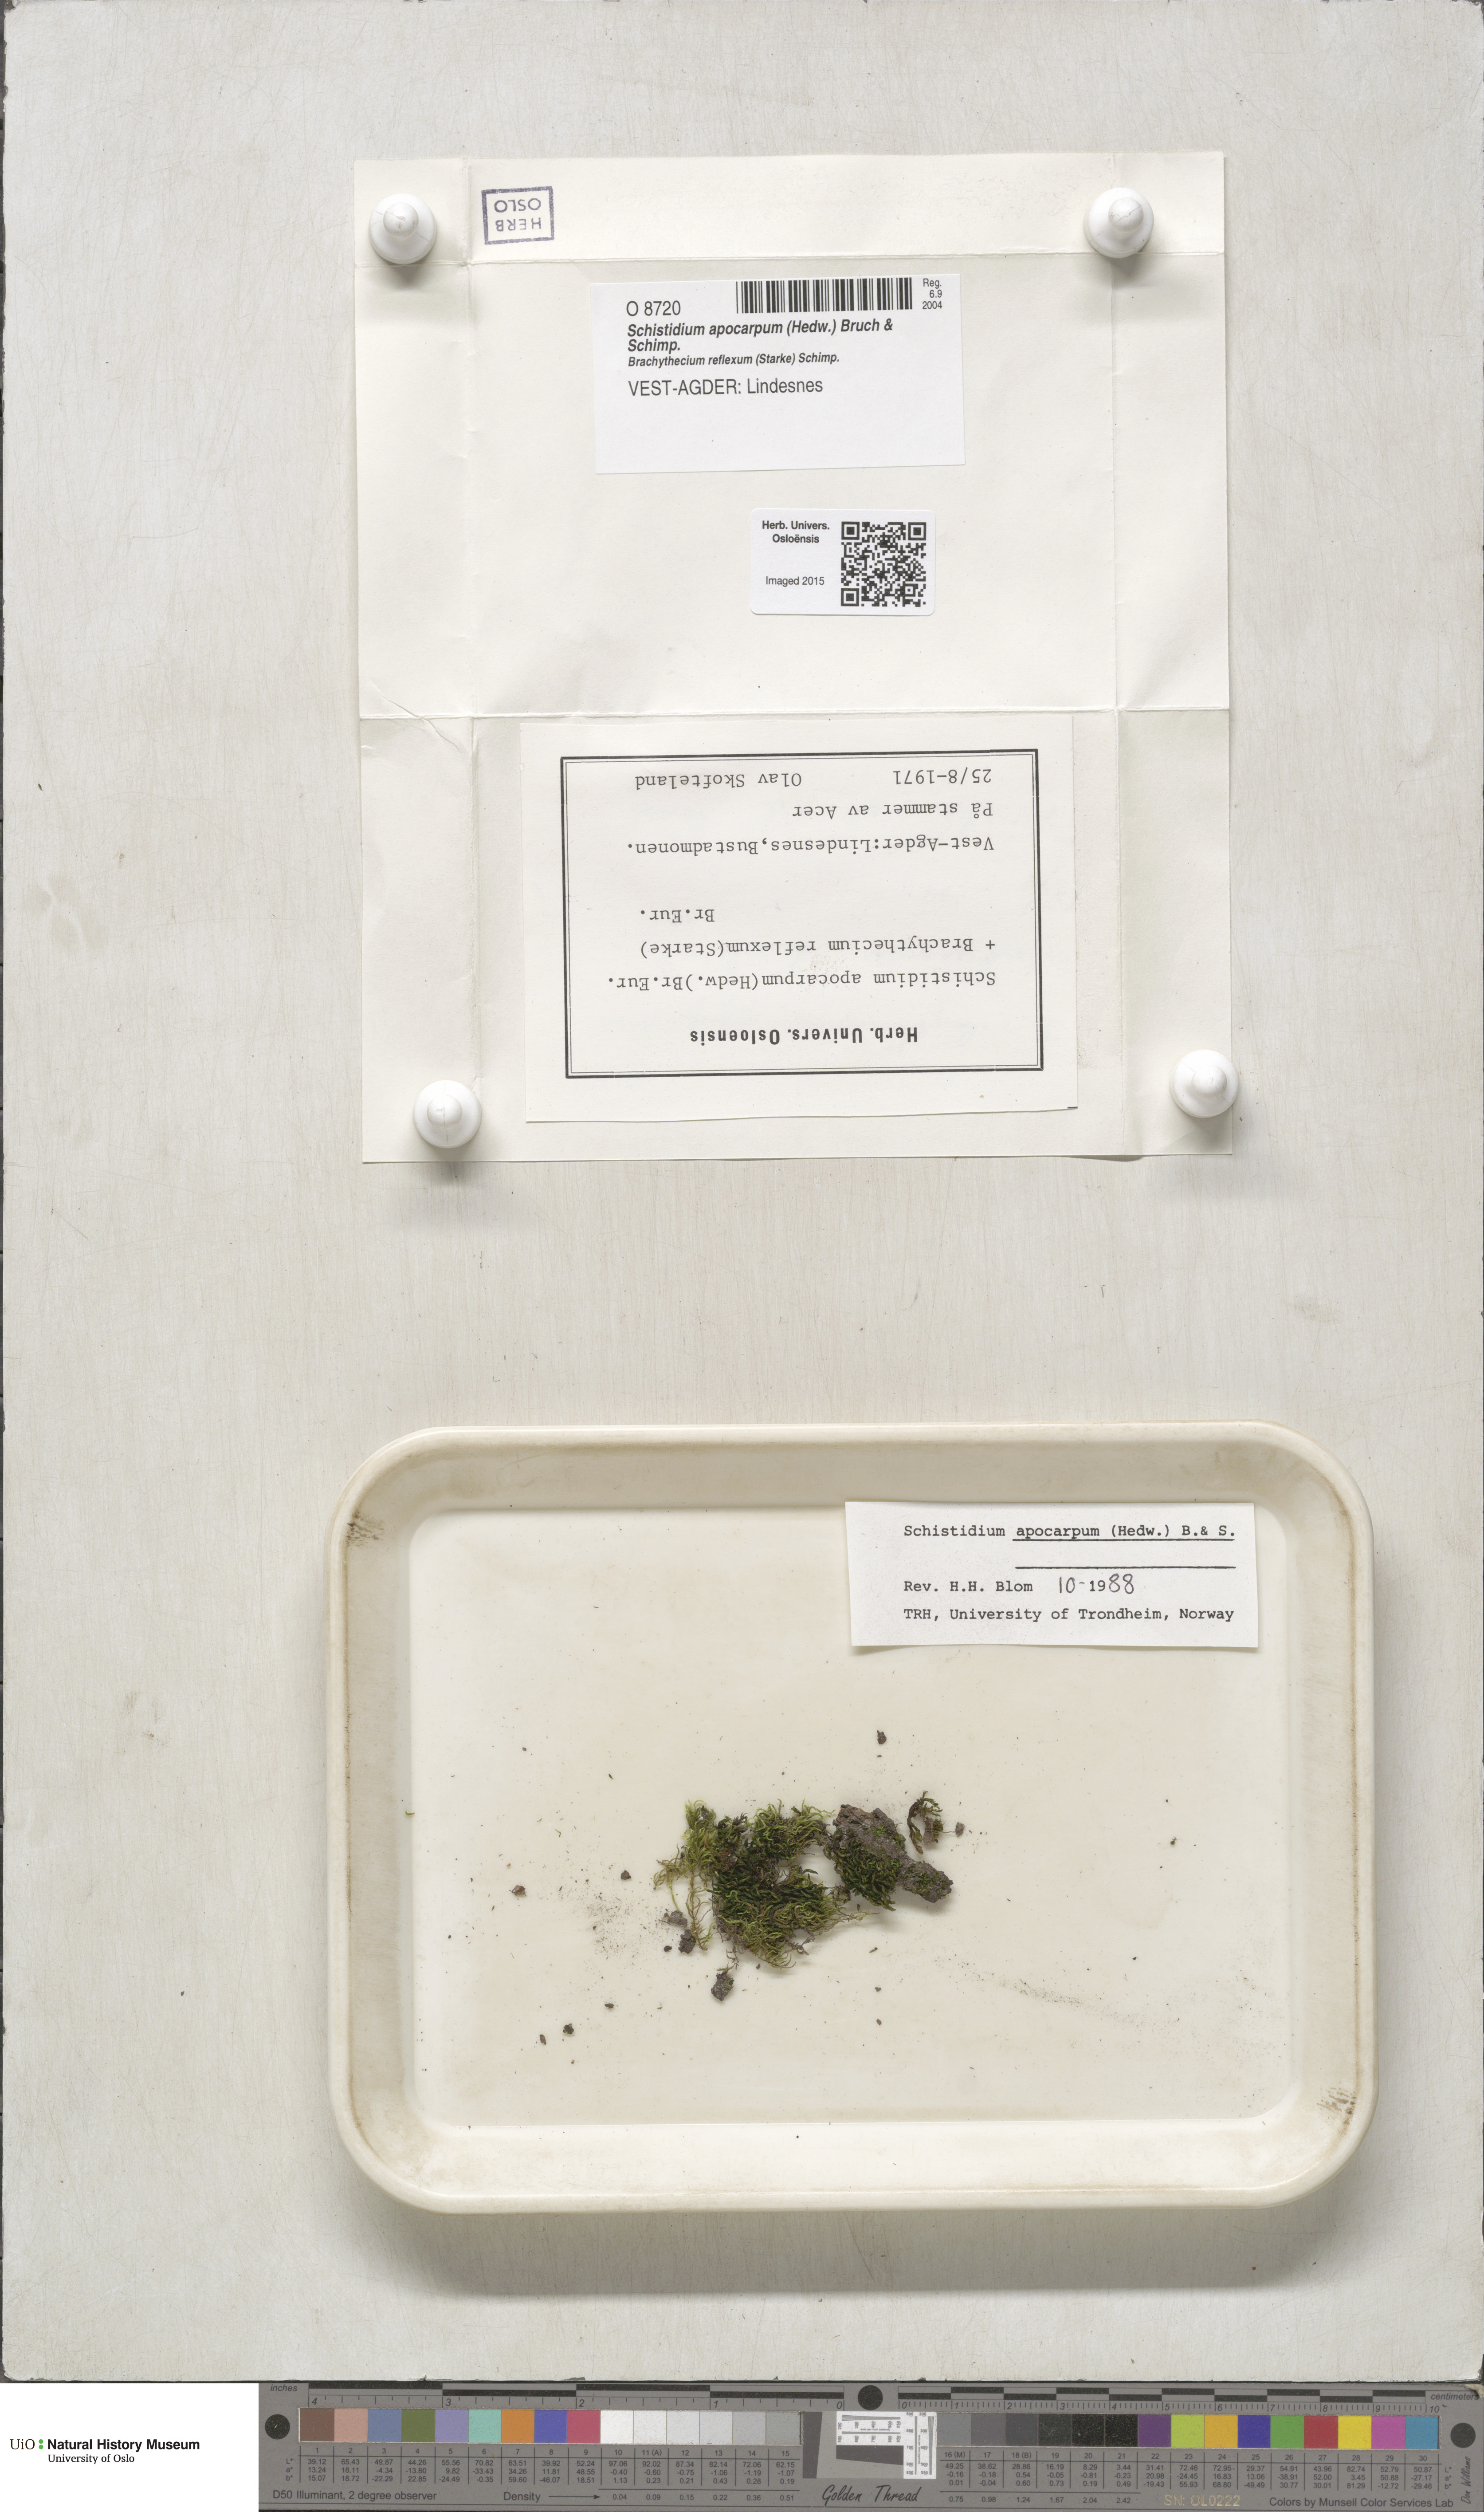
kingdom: Plantae
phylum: Bryophyta
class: Bryopsida
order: Grimmiales
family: Grimmiaceae
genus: Schistidium
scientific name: Schistidium apocarpum
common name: Radiate bloom moss
